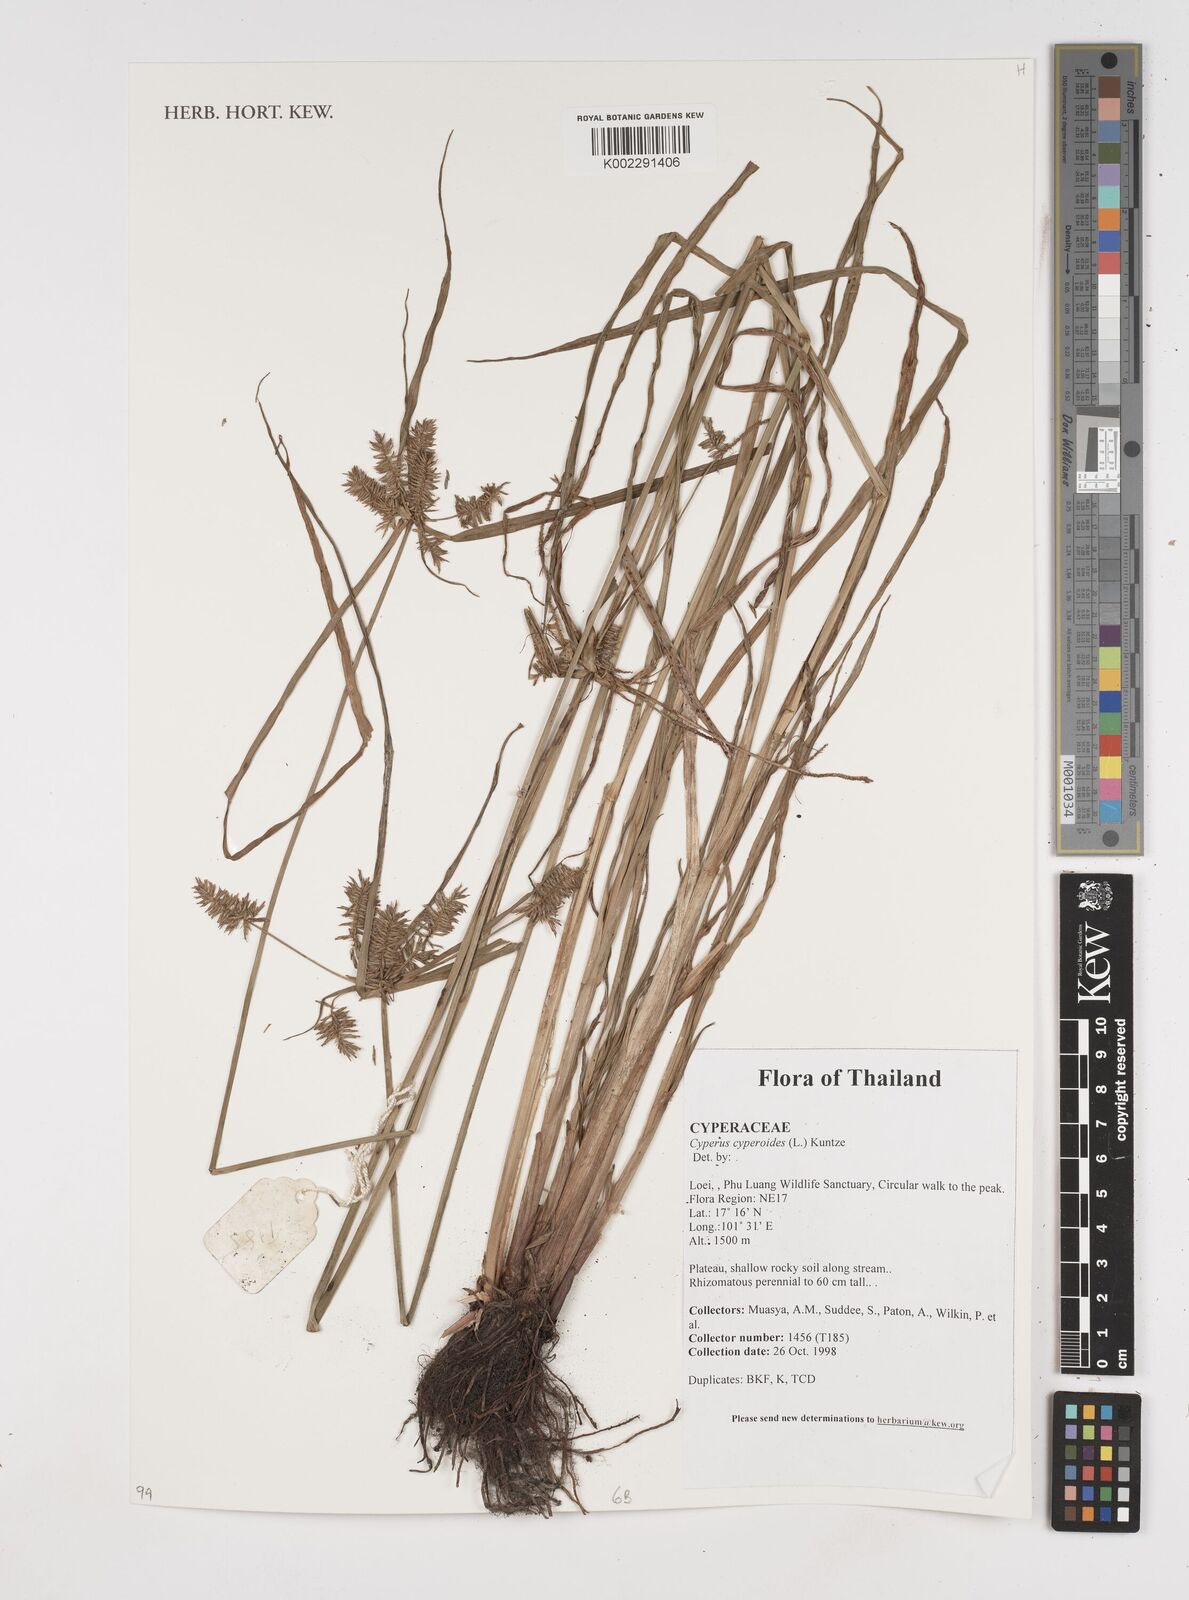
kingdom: Plantae
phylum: Tracheophyta
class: Liliopsida
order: Poales
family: Cyperaceae
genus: Cyperus
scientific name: Cyperus cyperoides
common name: Pacific island flat sedge
